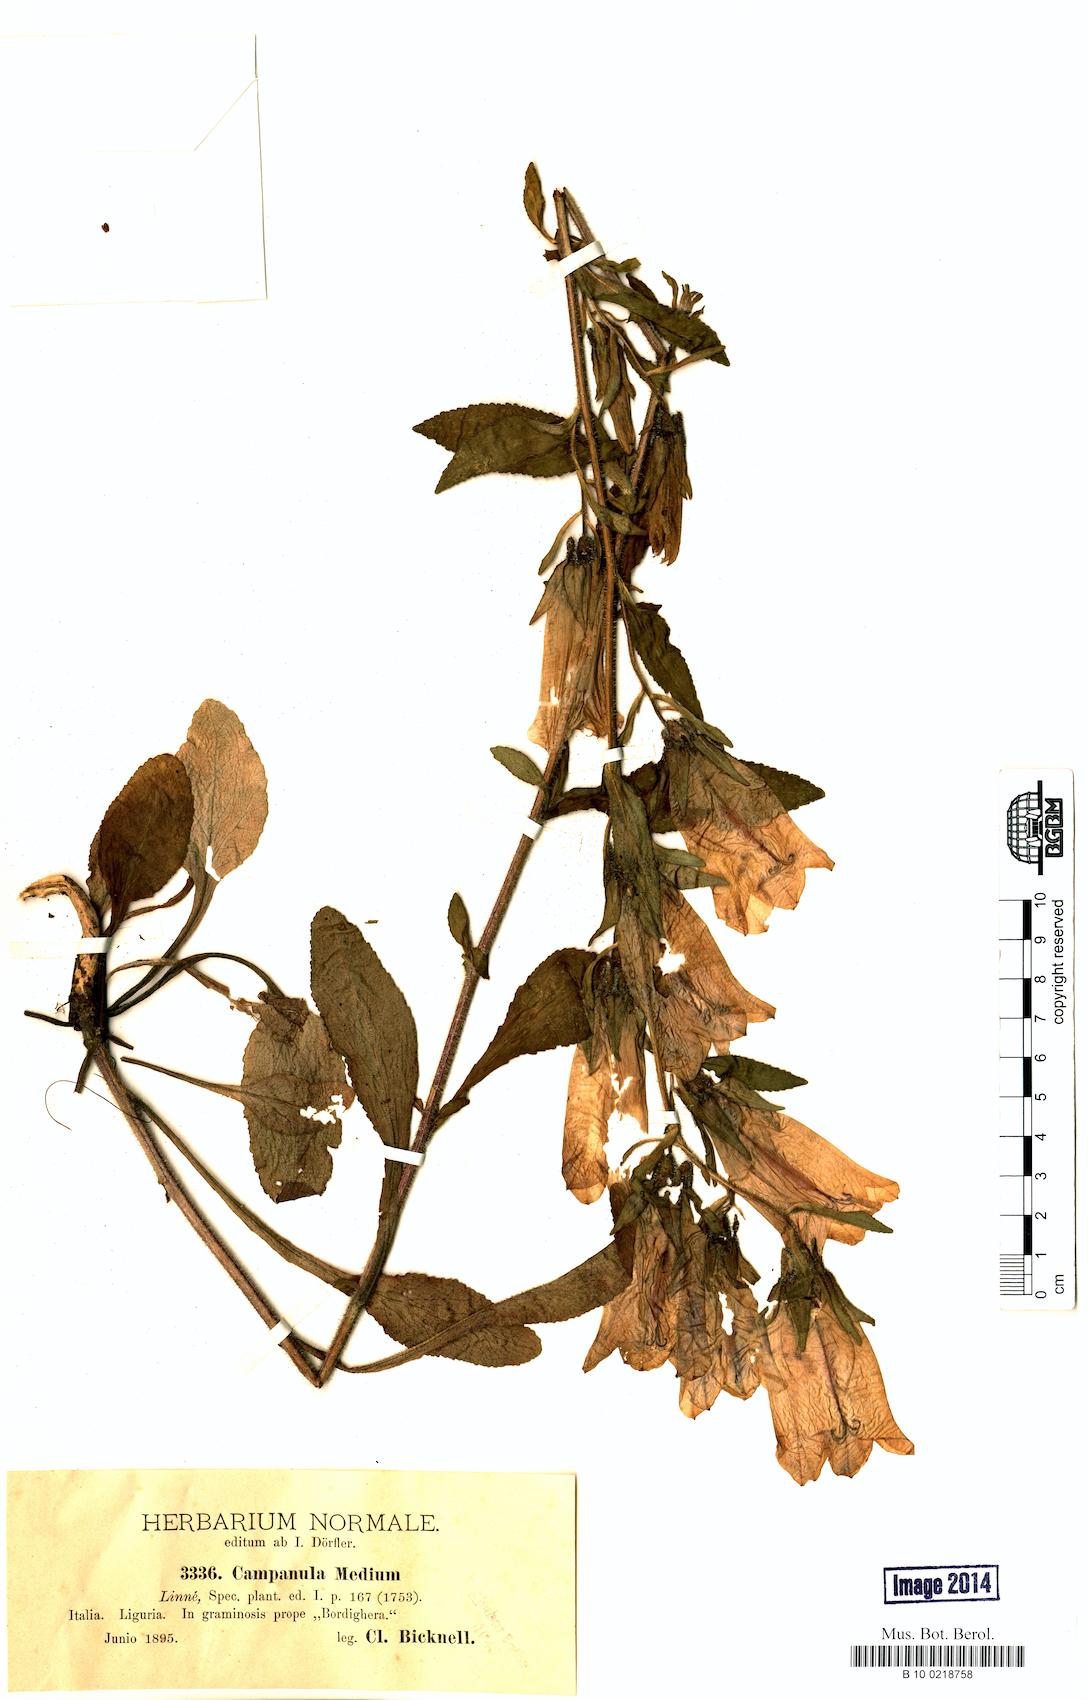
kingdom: Plantae
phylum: Tracheophyta
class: Magnoliopsida
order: Asterales
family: Campanulaceae
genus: Campanula
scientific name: Campanula medium
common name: Canterbury bells
